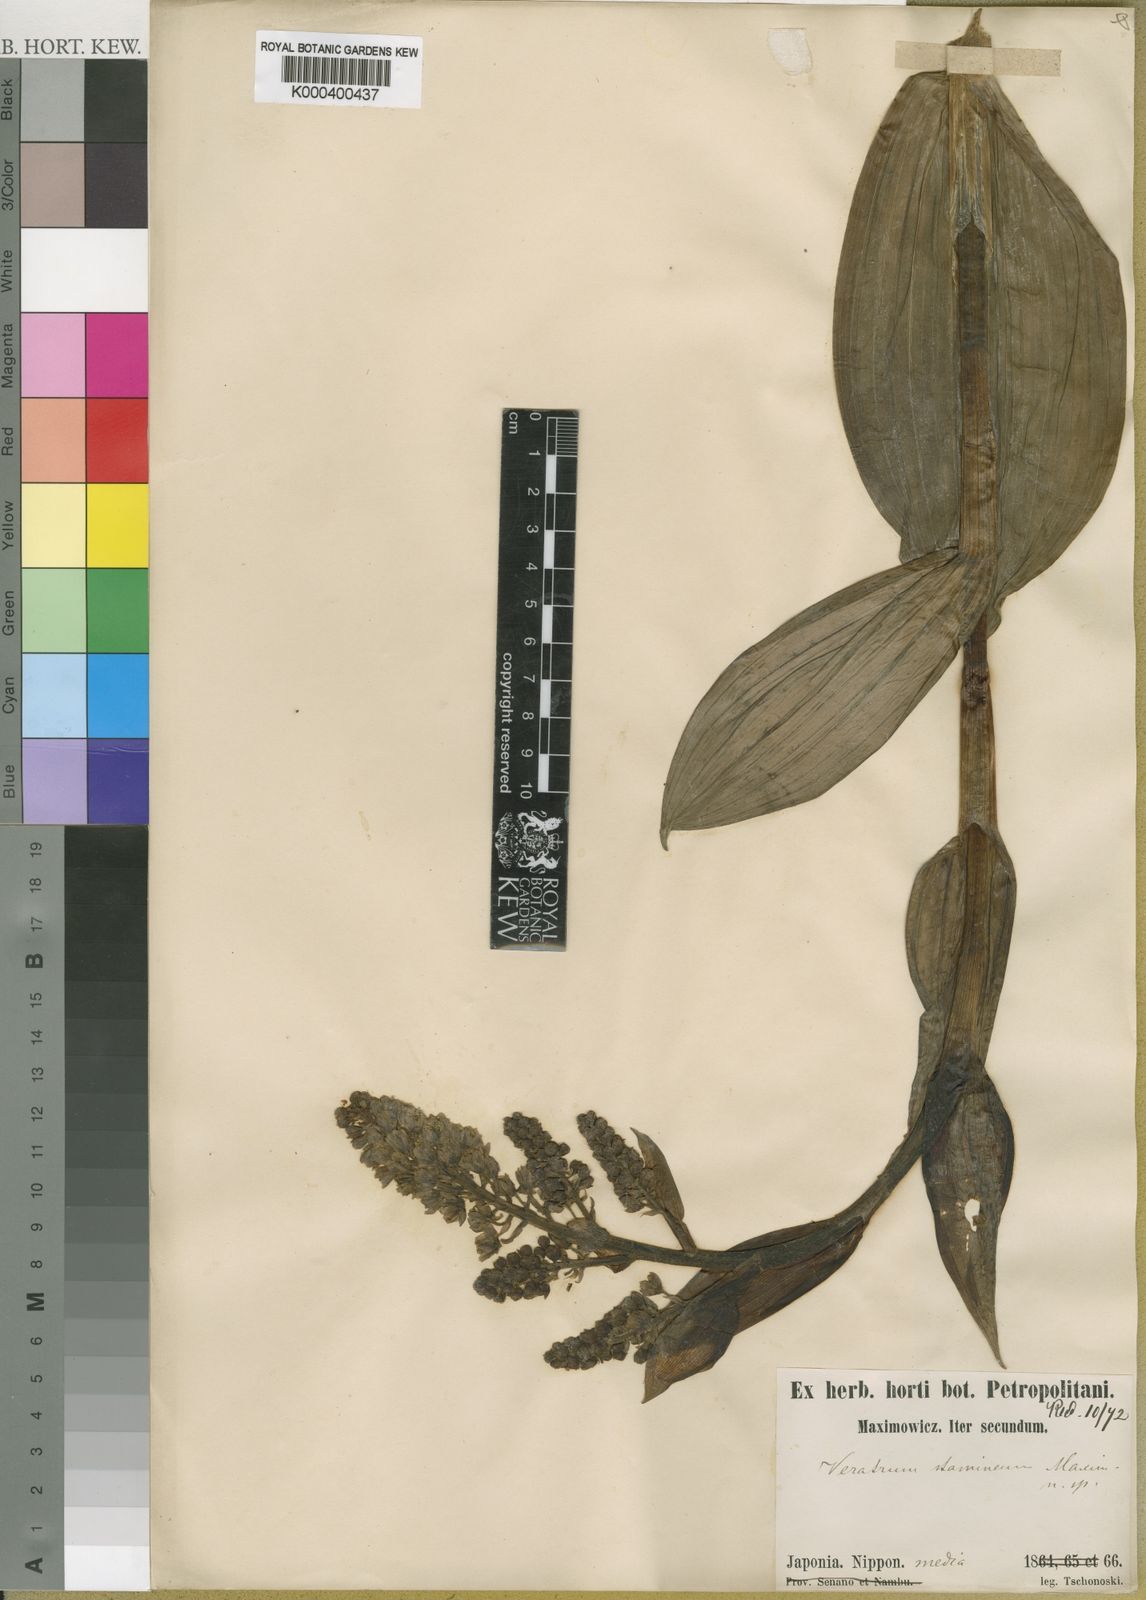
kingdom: Plantae
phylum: Tracheophyta
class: Liliopsida
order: Liliales
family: Melanthiaceae
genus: Veratrum
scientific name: Veratrum stamineum
